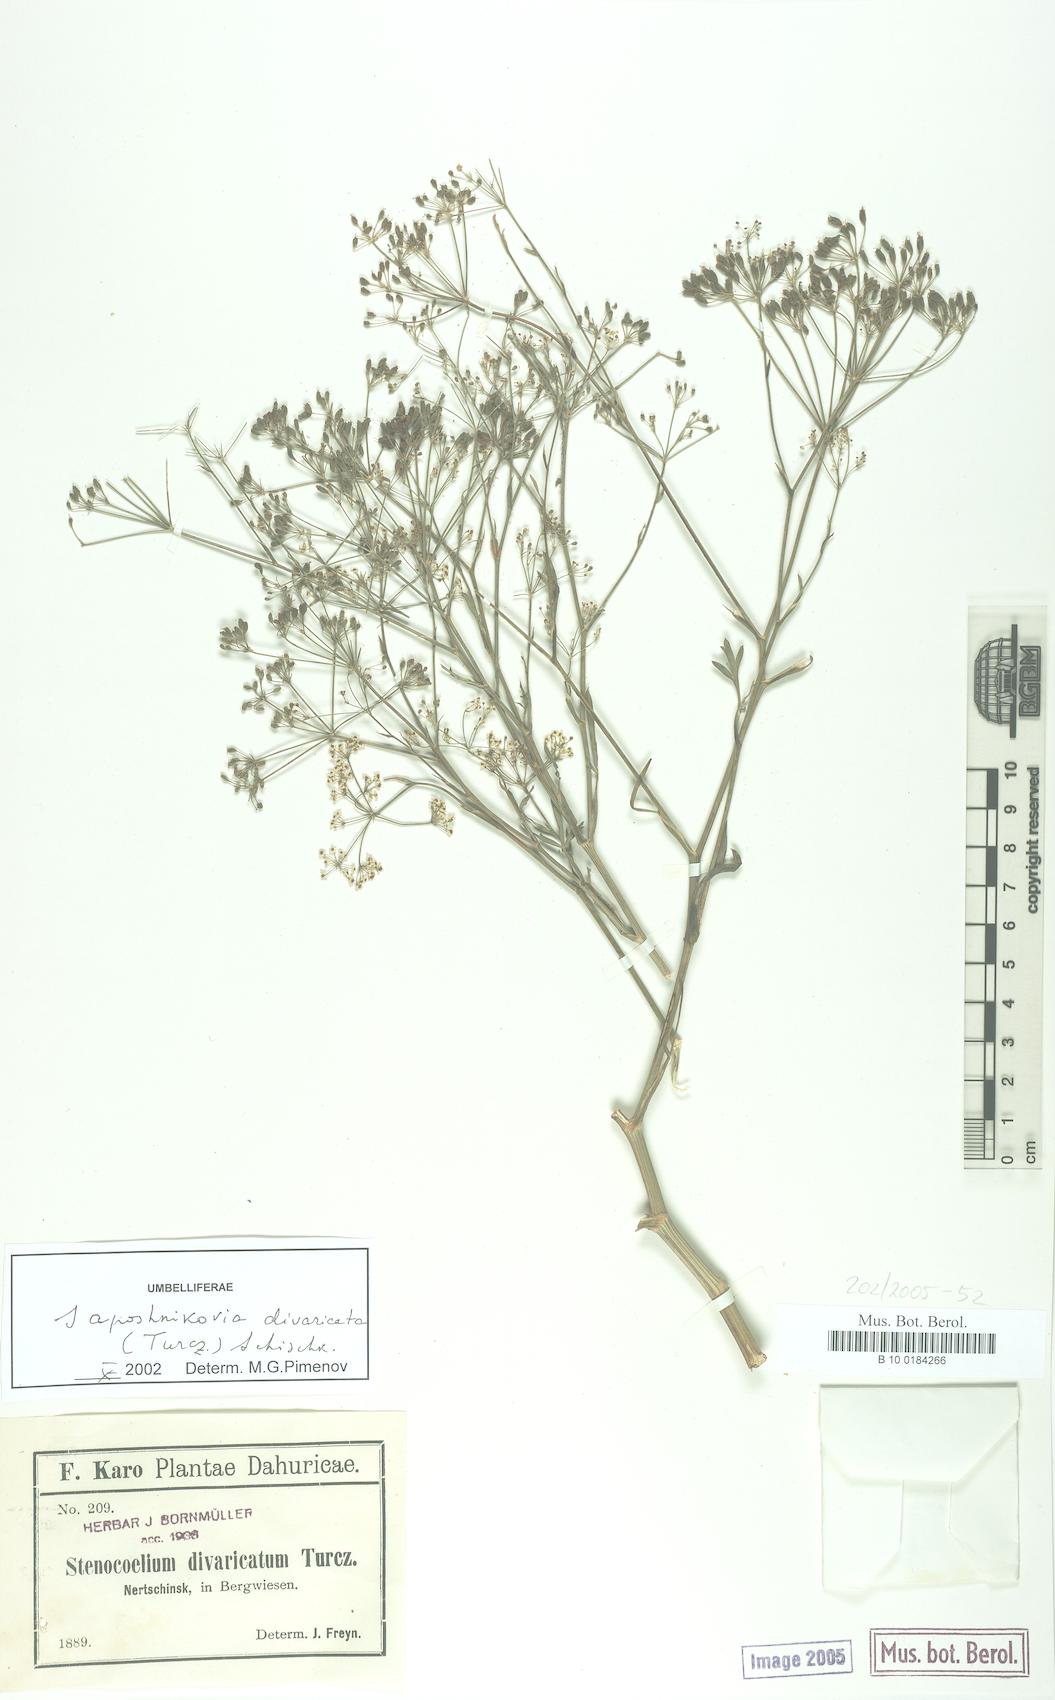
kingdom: Plantae
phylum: Tracheophyta
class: Magnoliopsida
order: Apiales
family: Apiaceae
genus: Saposhnikovia
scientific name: Saposhnikovia divaricata
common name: Siler
